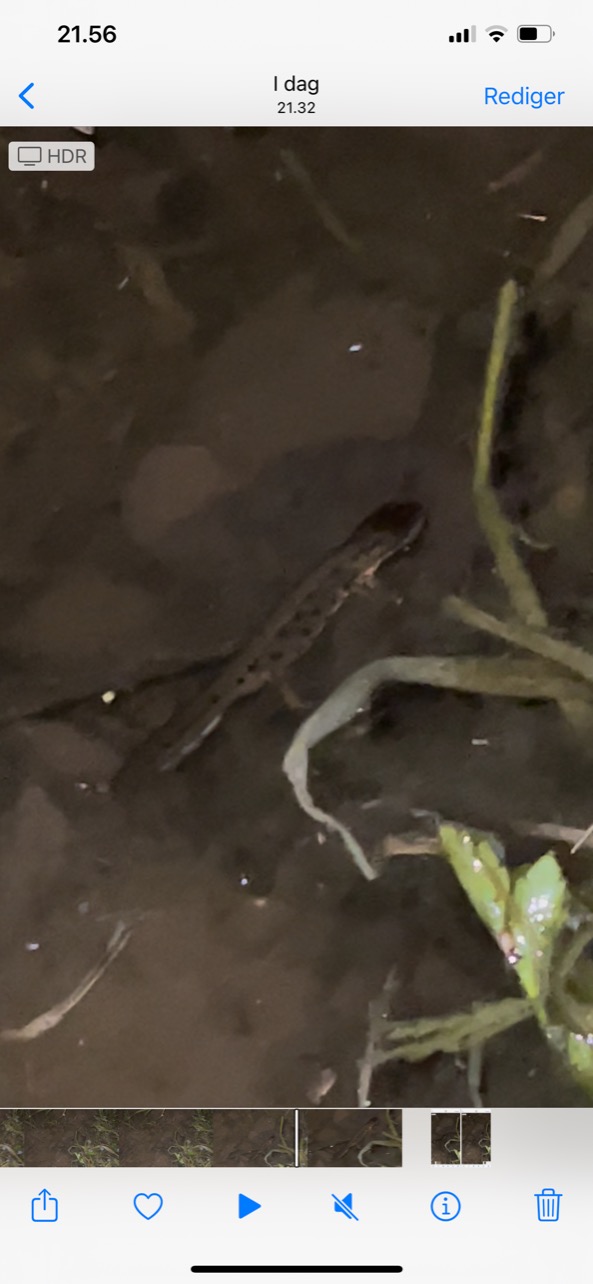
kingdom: Animalia
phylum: Chordata
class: Amphibia
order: Caudata
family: Salamandridae
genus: Lissotriton
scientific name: Lissotriton vulgaris
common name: Lille vandsalamander
